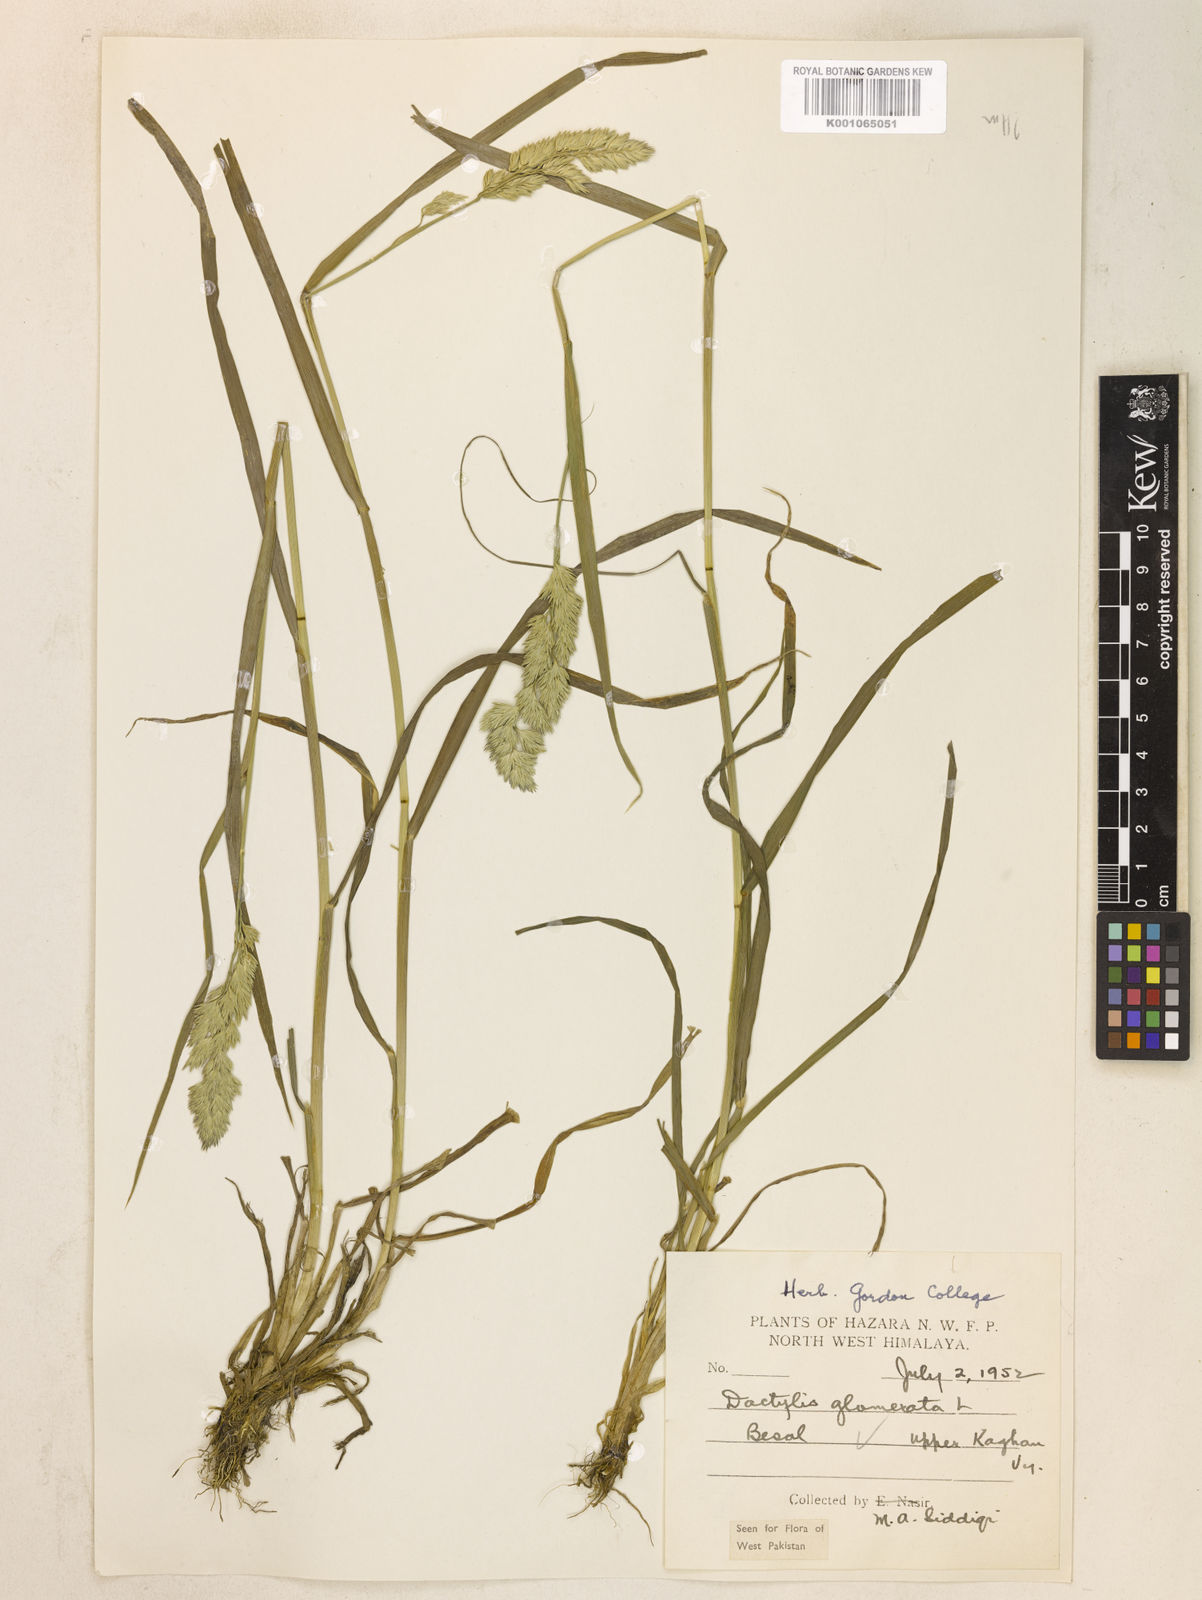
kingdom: Plantae
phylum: Tracheophyta
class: Liliopsida
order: Poales
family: Poaceae
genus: Dactylis
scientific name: Dactylis glomerata
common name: Orchardgrass
